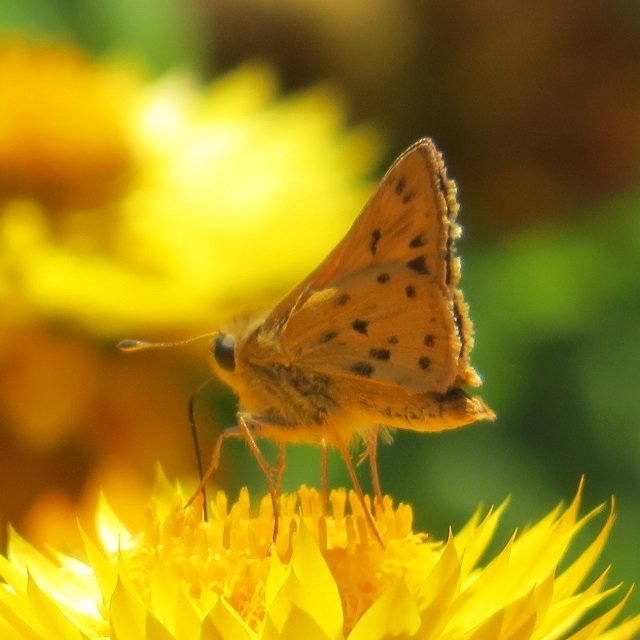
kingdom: Animalia
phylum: Arthropoda
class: Insecta
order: Lepidoptera
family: Hesperiidae
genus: Hylephila
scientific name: Hylephila phyleus
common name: Fiery Skipper
